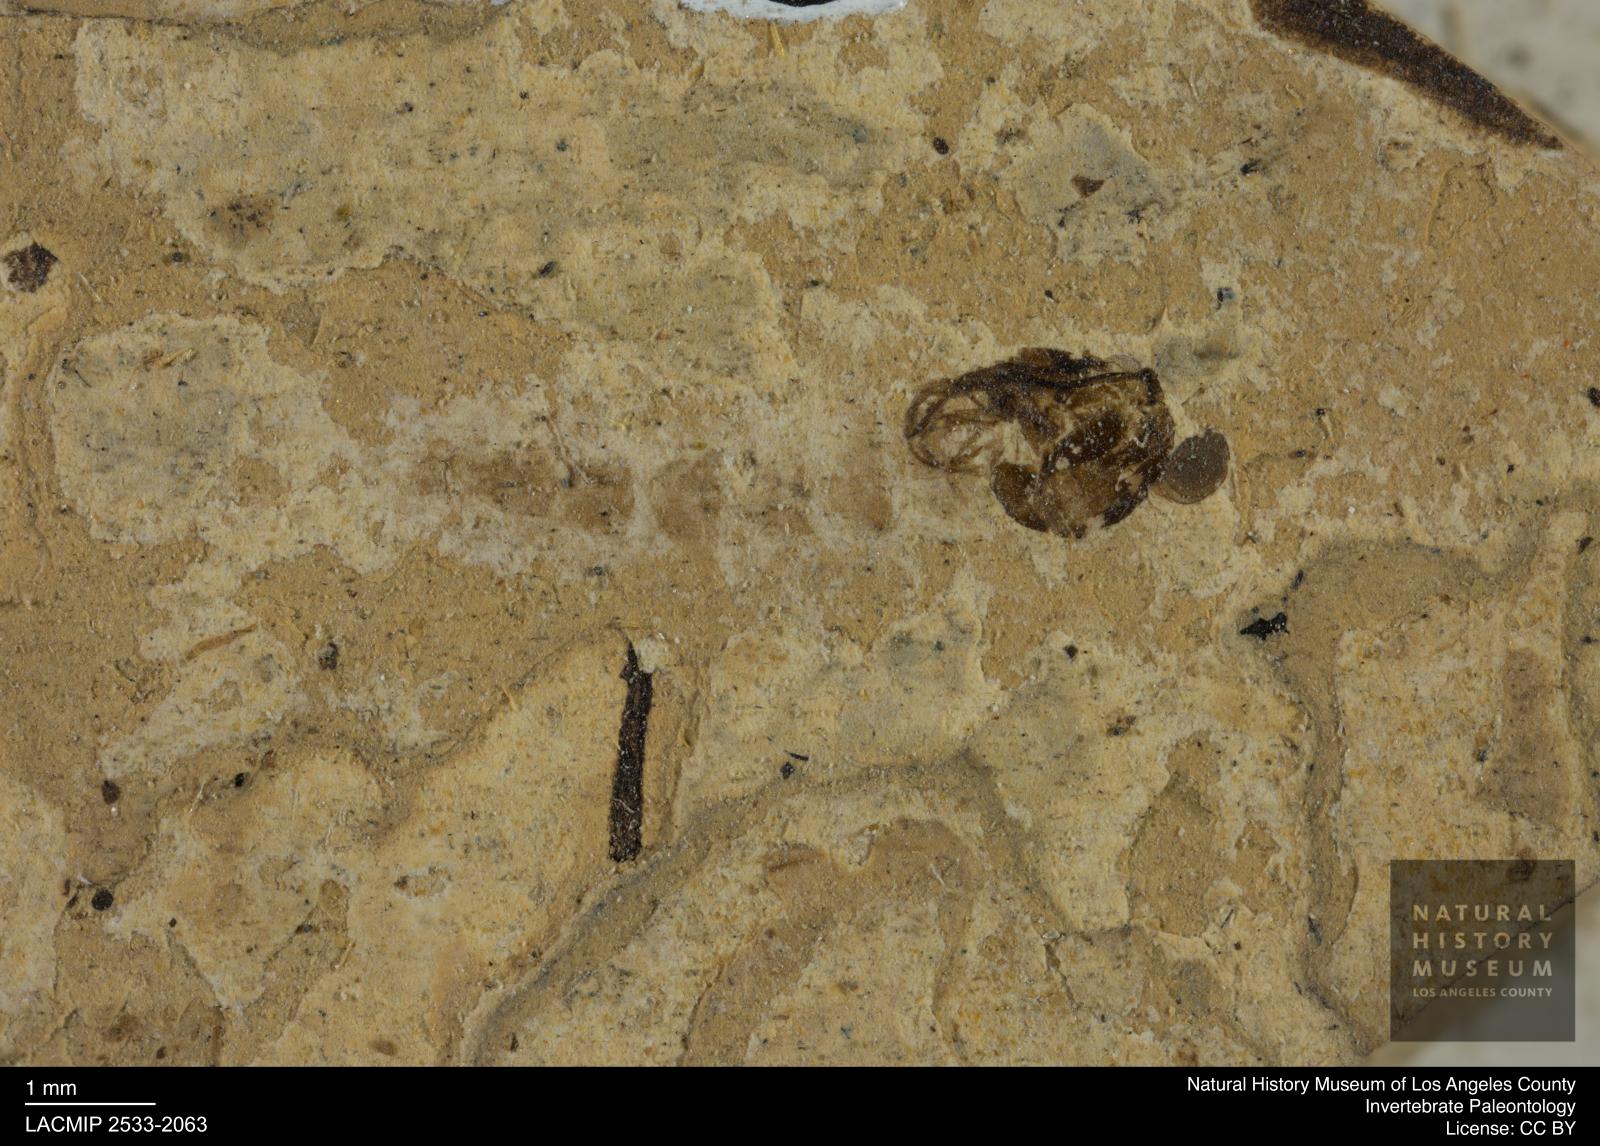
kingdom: Animalia
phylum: Arthropoda
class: Insecta
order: Diptera
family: Chironomidae
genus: Pelopiina
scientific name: Pelopiina
